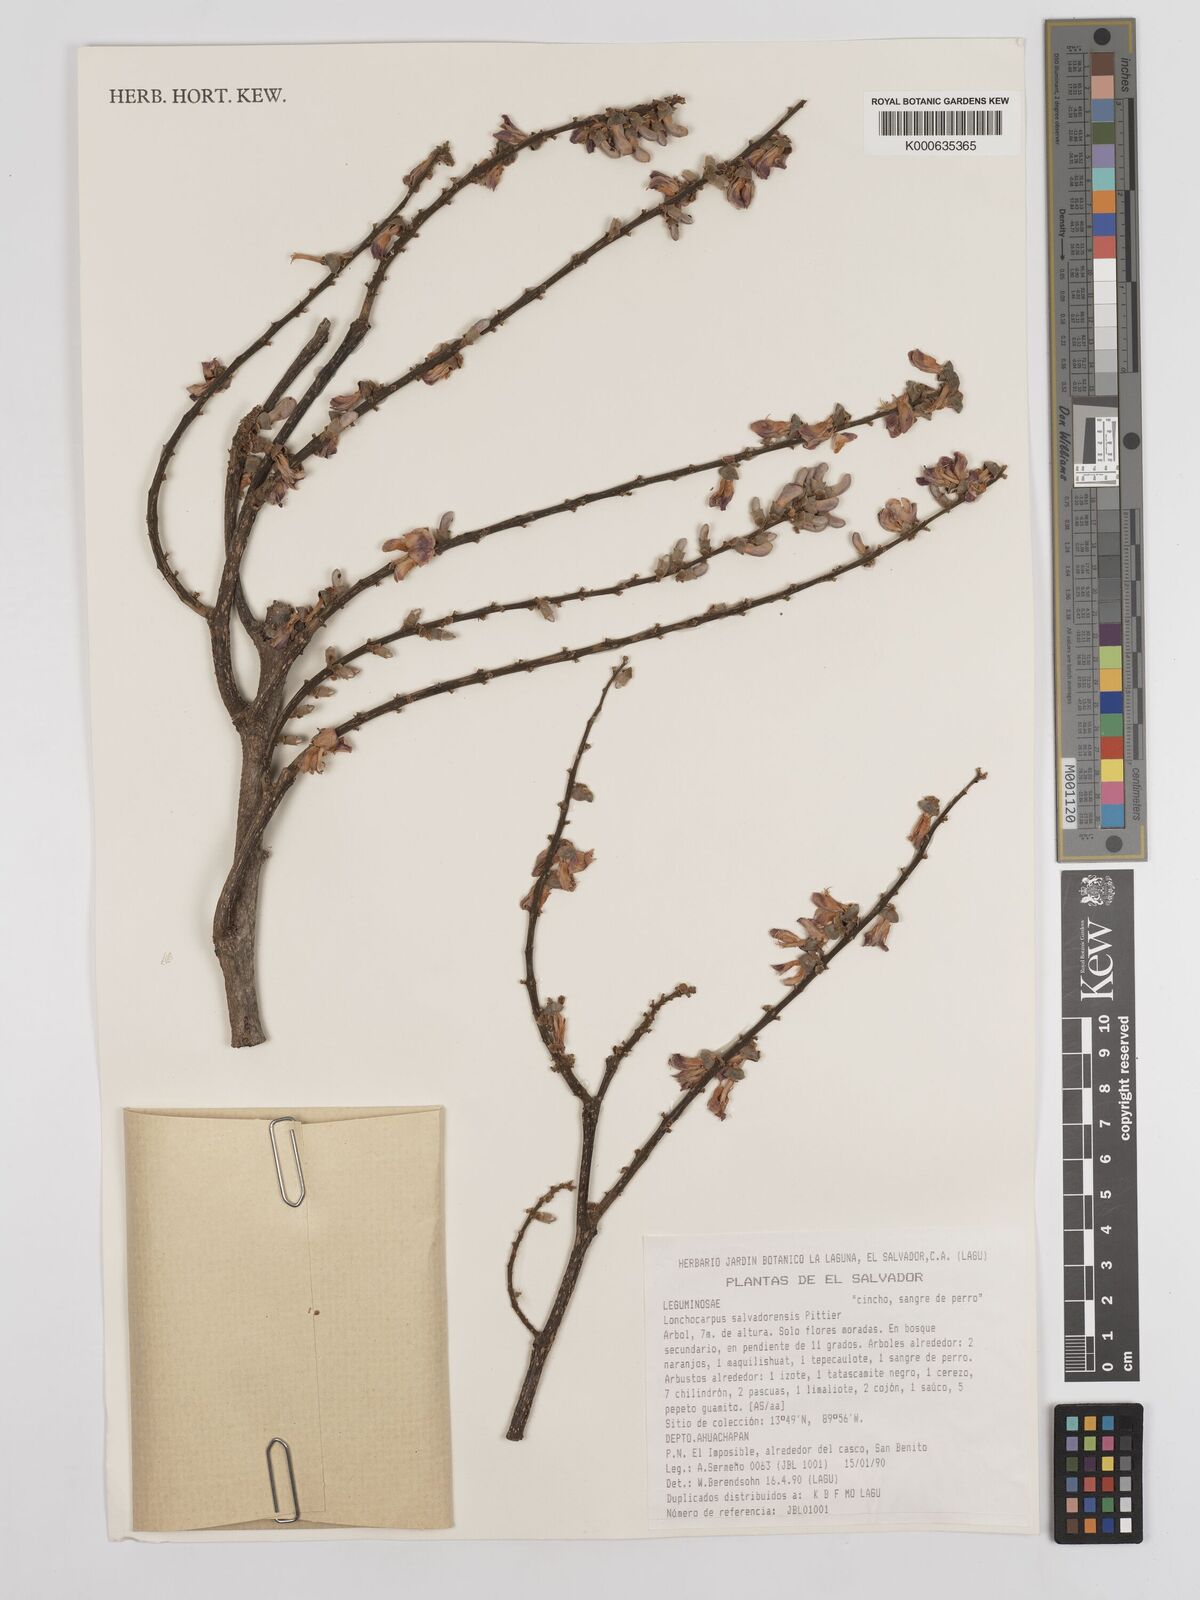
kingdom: Plantae
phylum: Tracheophyta
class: Magnoliopsida
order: Fabales
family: Fabaceae
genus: Lonchocarpus
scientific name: Lonchocarpus salvadorensis
